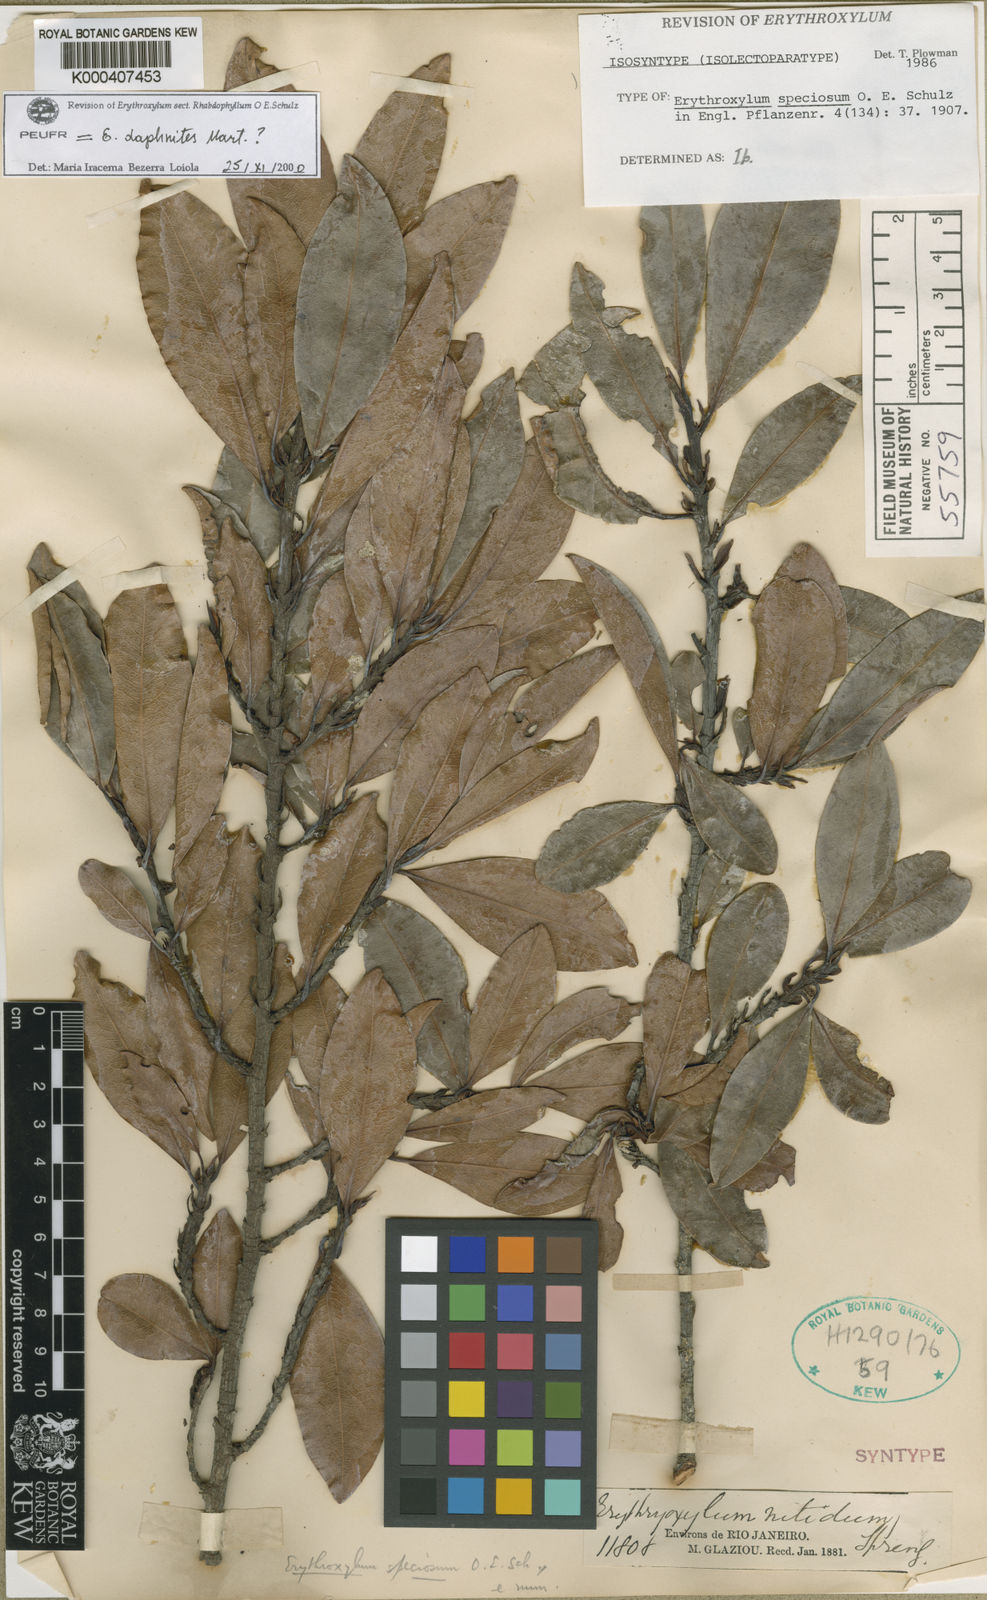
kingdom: Plantae
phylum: Tracheophyta
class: Magnoliopsida
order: Malpighiales
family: Erythroxylaceae
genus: Erythroxylum
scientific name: Erythroxylum pulchrum
